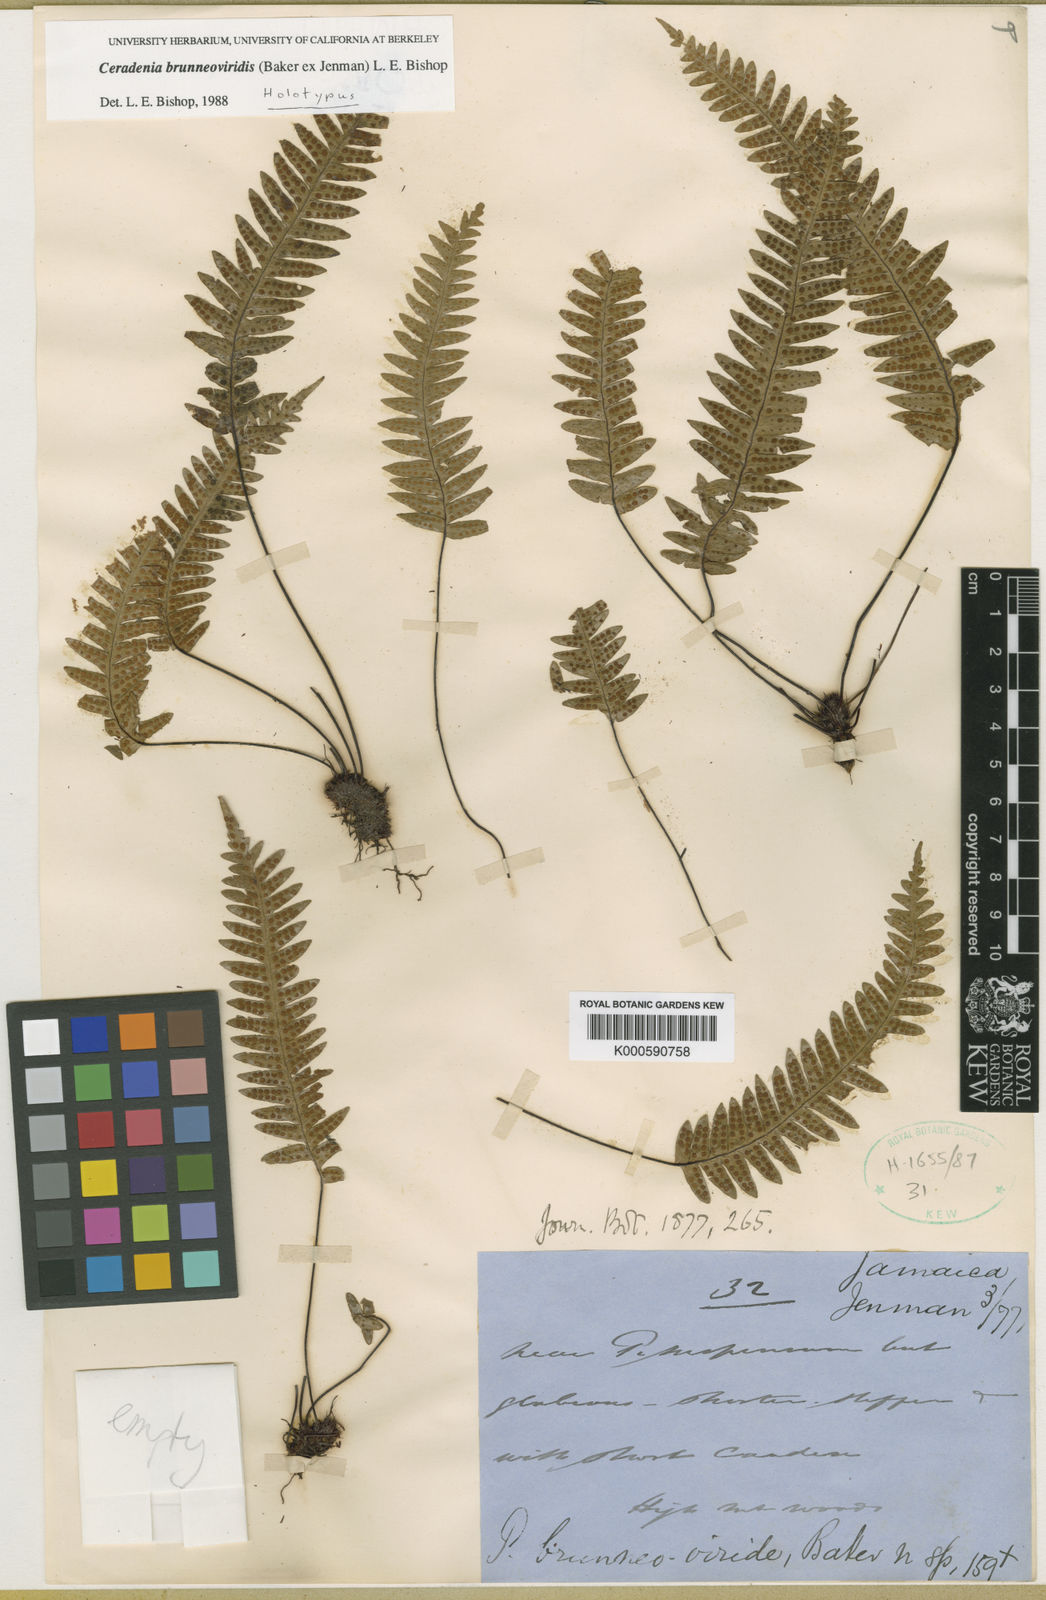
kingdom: Plantae
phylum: Tracheophyta
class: Polypodiopsida
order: Polypodiales
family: Polypodiaceae
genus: Ceradenia
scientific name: Ceradenia brunneoviridis
